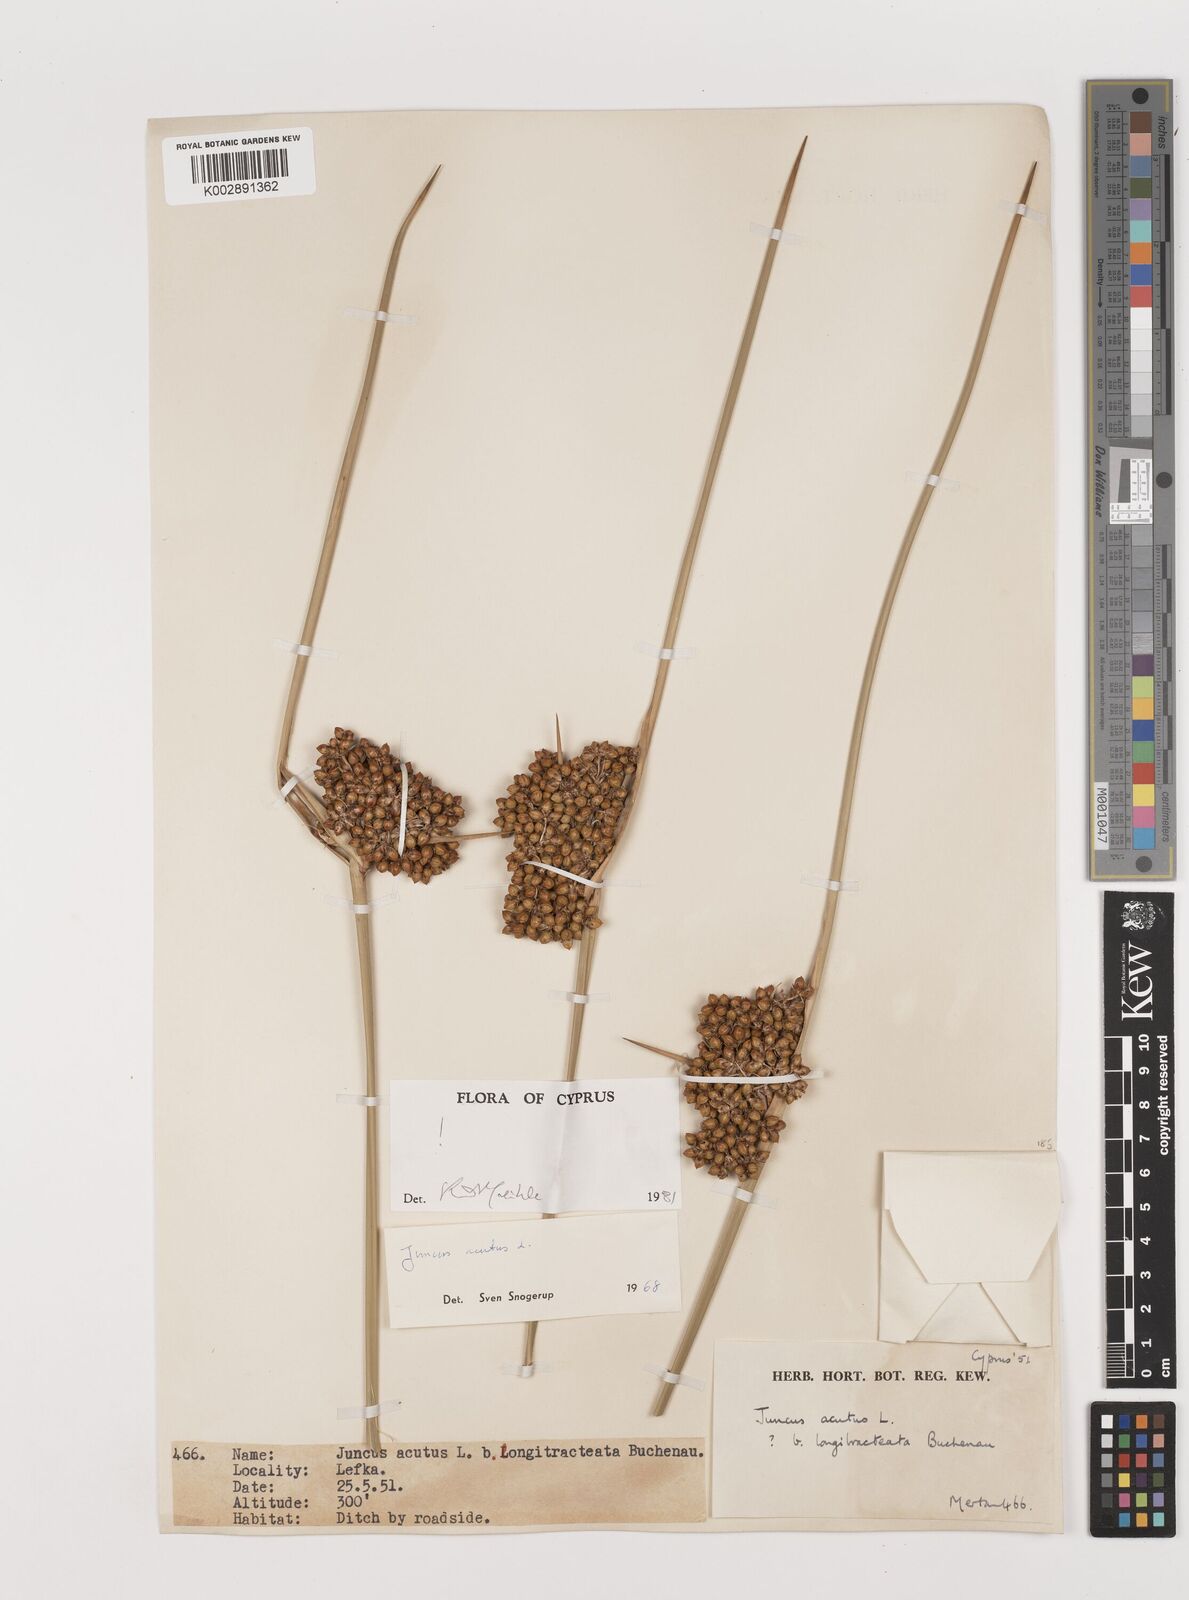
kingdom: Plantae
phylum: Tracheophyta
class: Liliopsida
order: Poales
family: Juncaceae
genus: Juncus
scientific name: Juncus acutus
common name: Sharp rush
